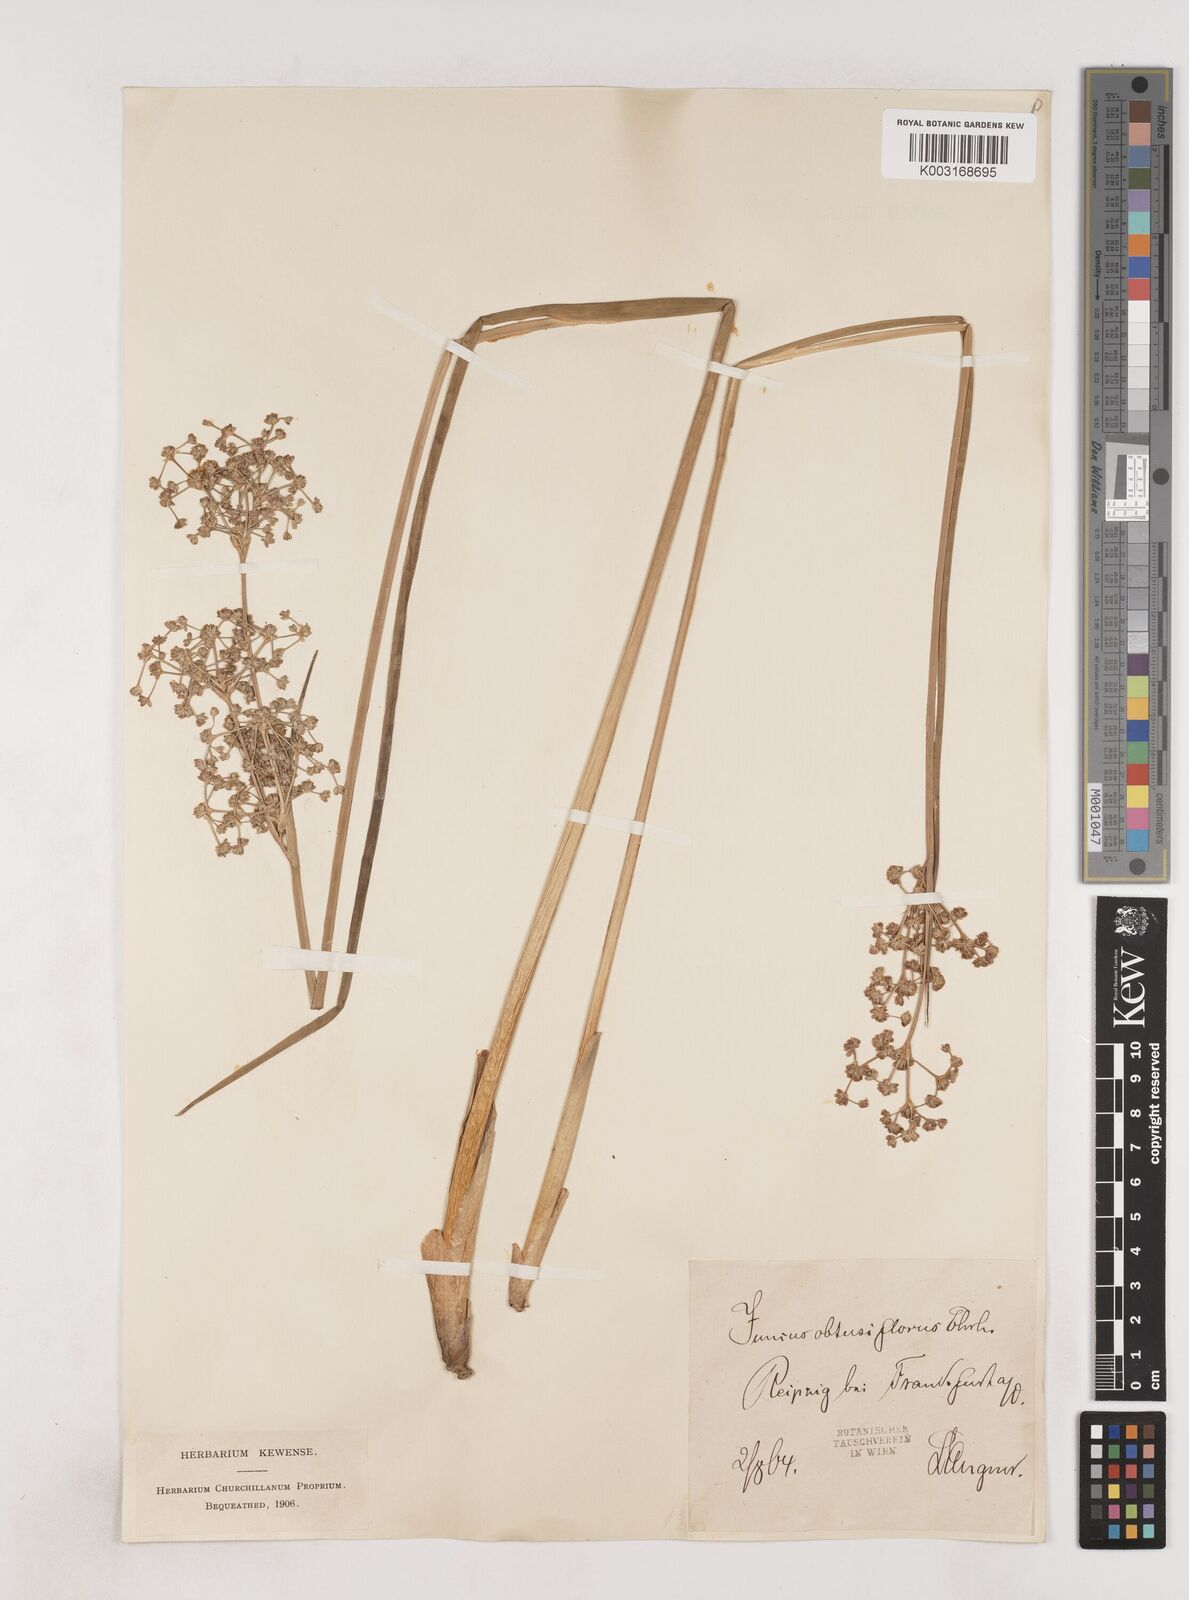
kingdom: Plantae
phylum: Tracheophyta
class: Liliopsida
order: Poales
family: Juncaceae
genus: Juncus
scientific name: Juncus subnodulosus
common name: Blunt-flowered rush
